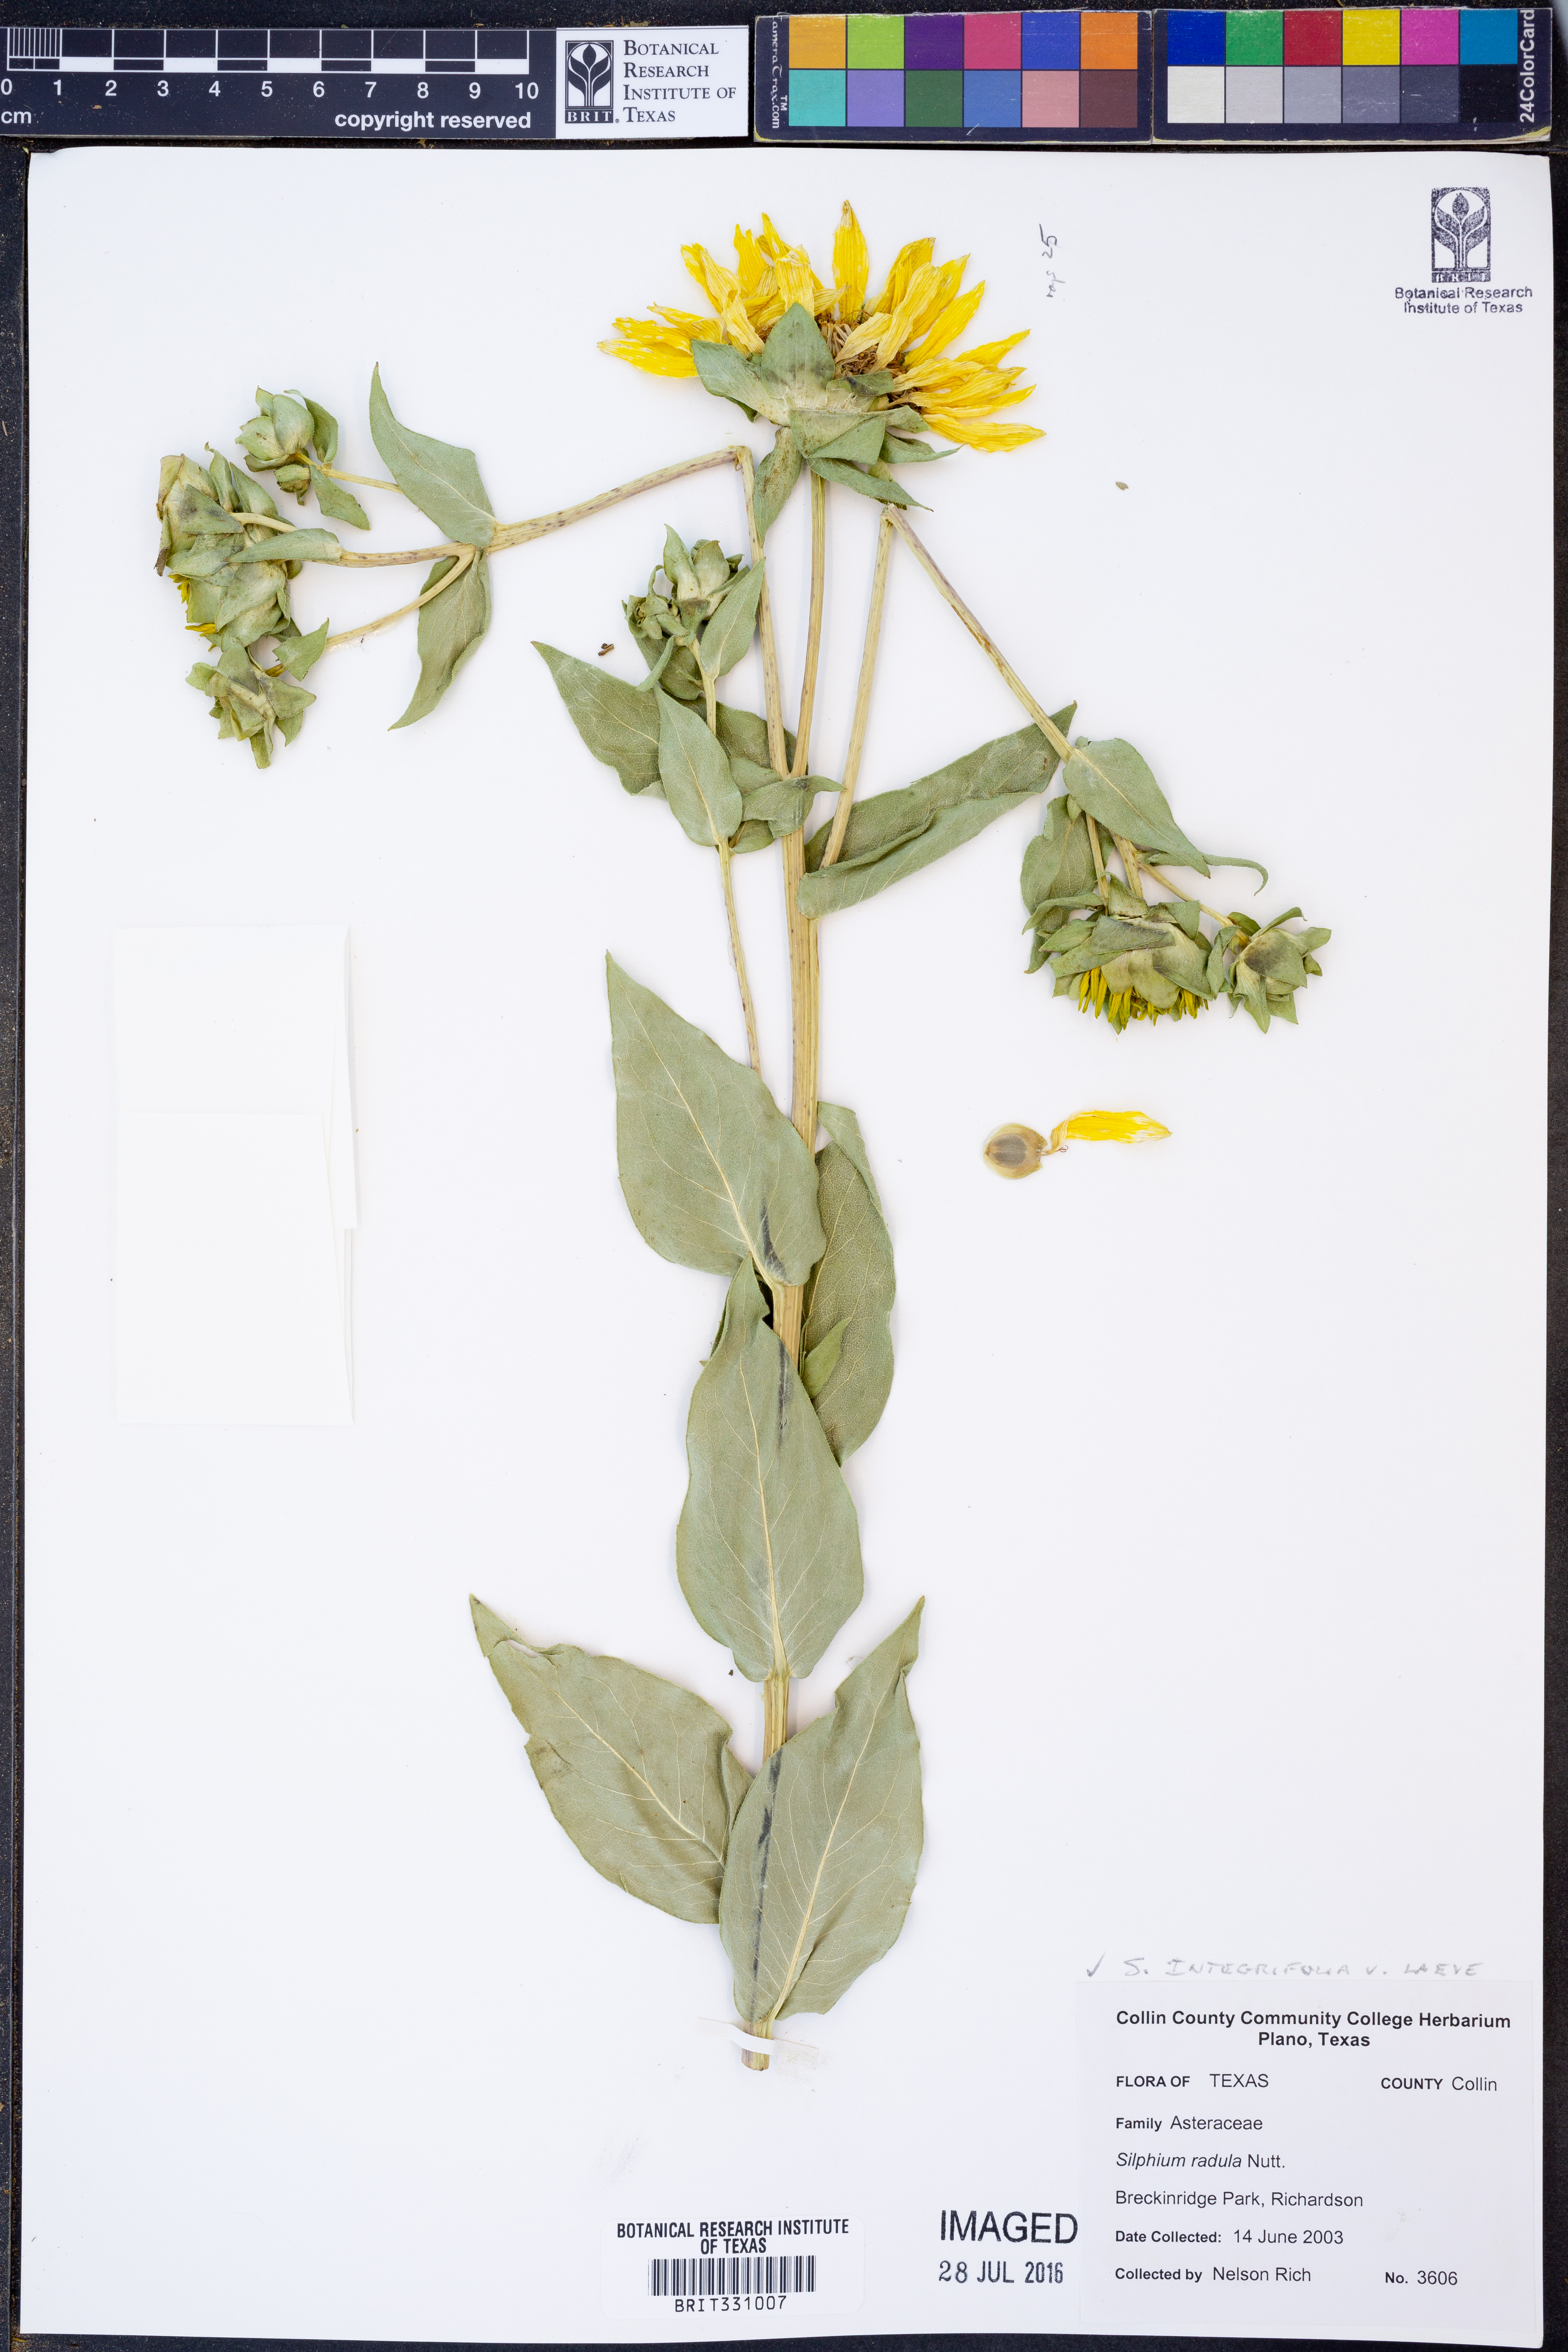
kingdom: Plantae
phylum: Tracheophyta
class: Magnoliopsida
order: Asterales
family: Asteraceae
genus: Silphium
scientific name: Silphium integrifolium
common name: Whole-leaf rosinweed
